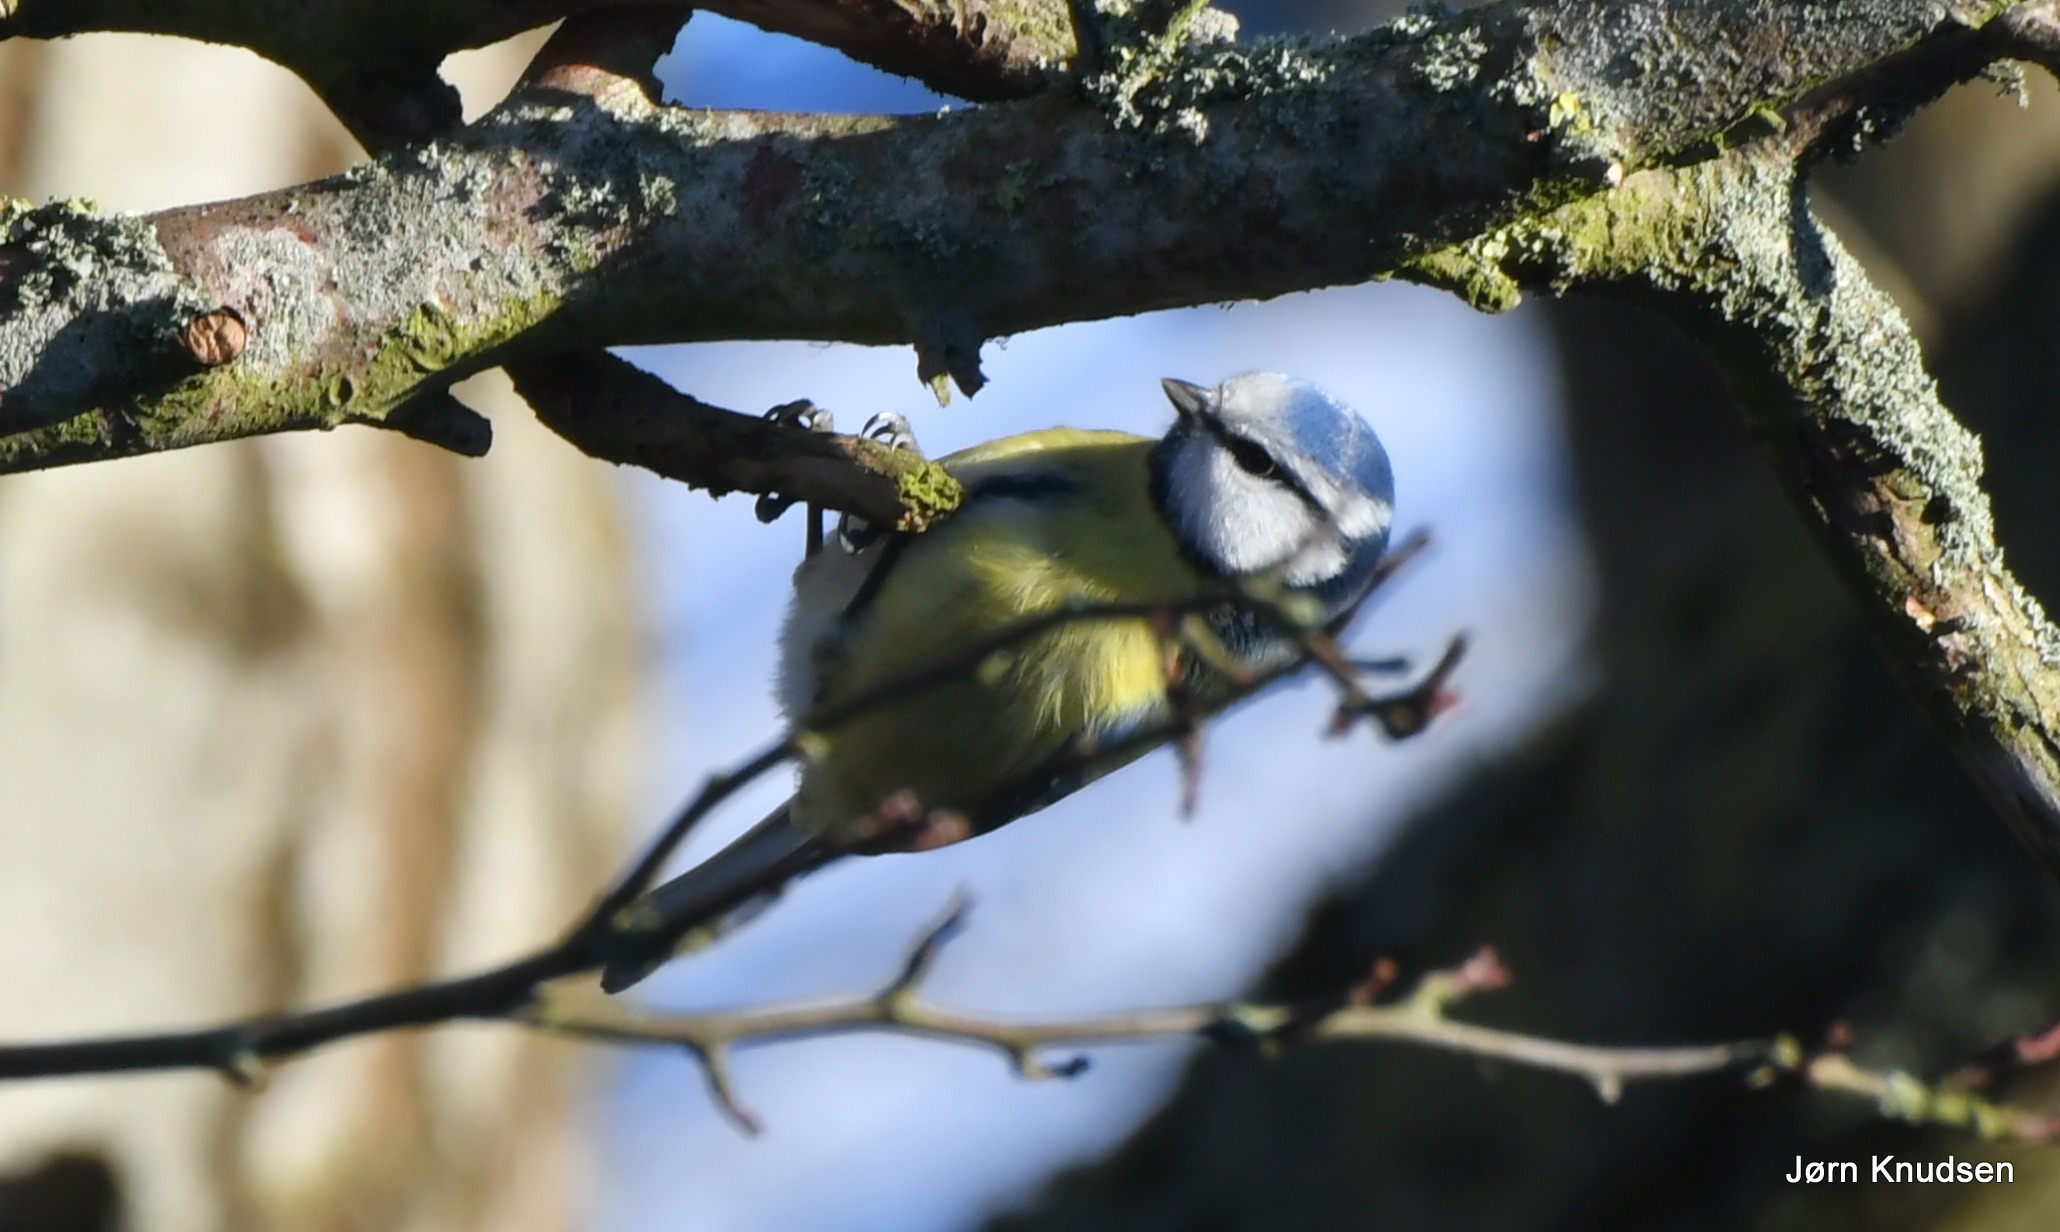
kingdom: Animalia
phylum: Chordata
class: Aves
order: Passeriformes
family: Paridae
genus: Cyanistes
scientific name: Cyanistes caeruleus
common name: Blåmejse
